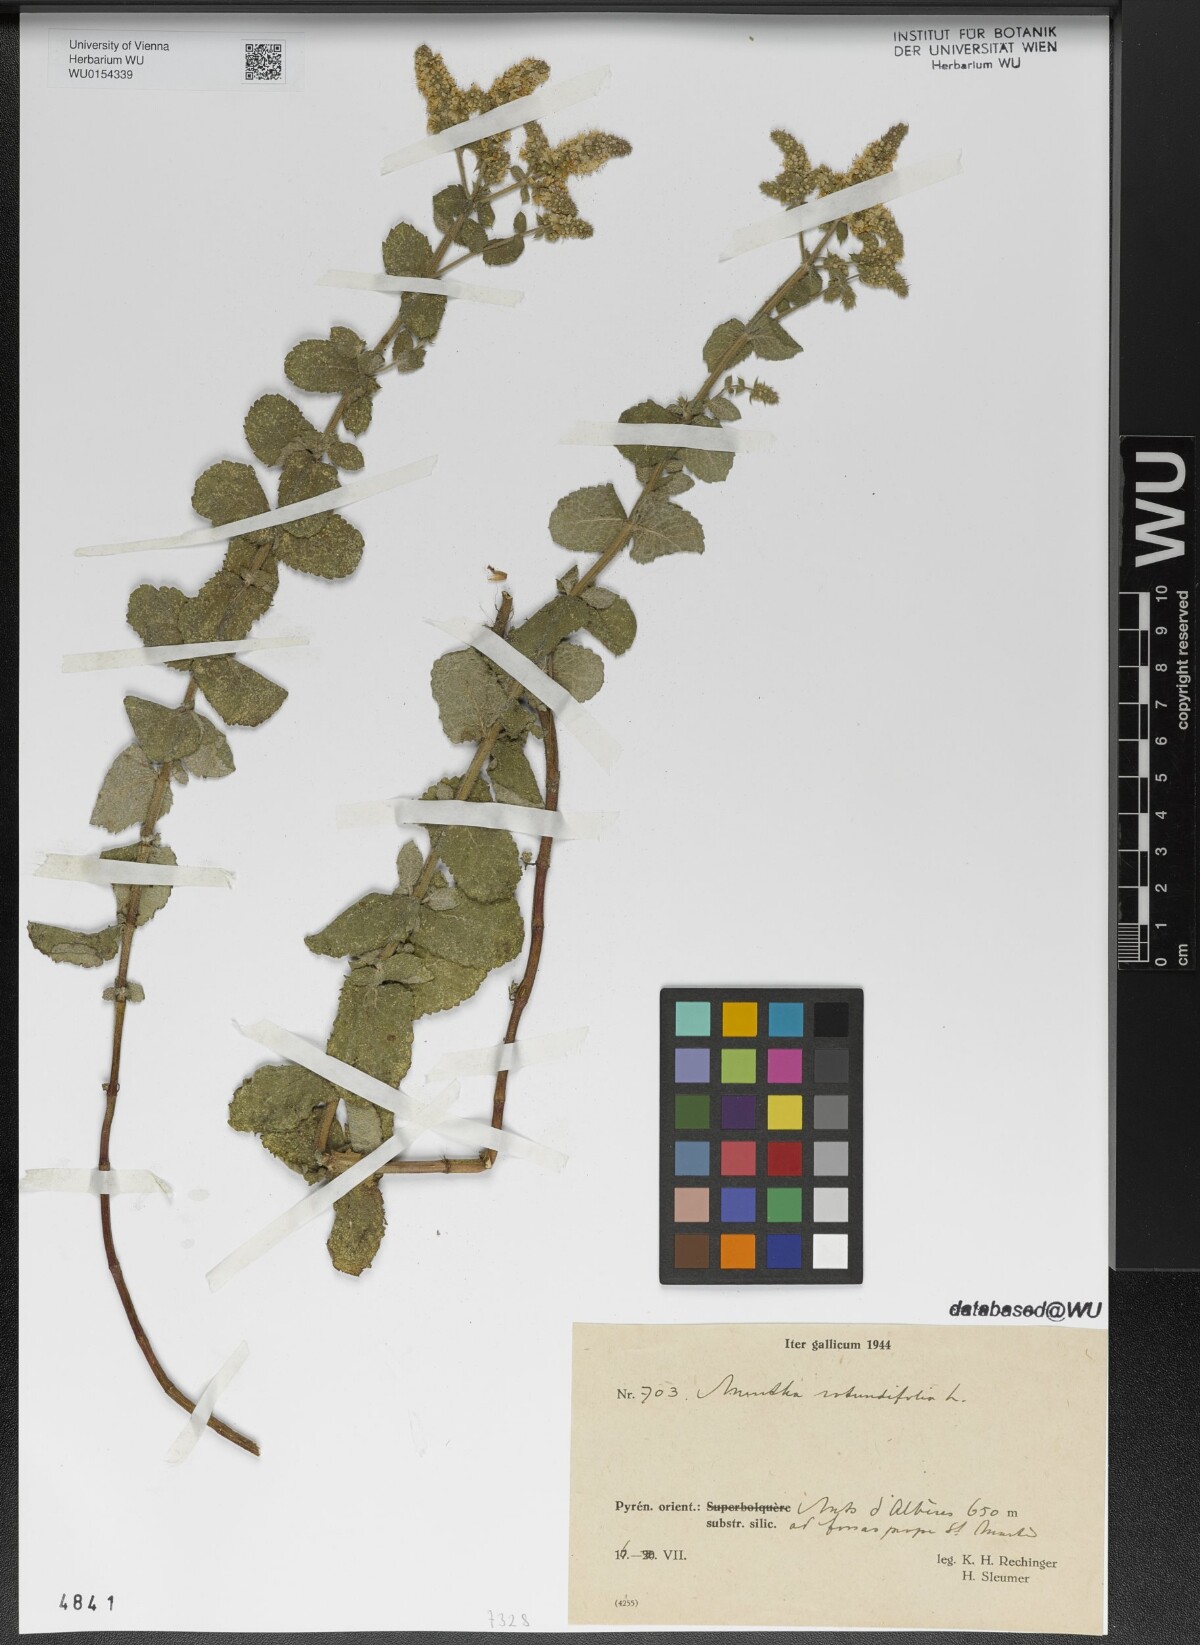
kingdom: Plantae
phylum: Tracheophyta
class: Magnoliopsida
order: Lamiales
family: Lamiaceae
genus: Mentha
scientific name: Mentha rotundifolia
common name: Bigleaf mint
